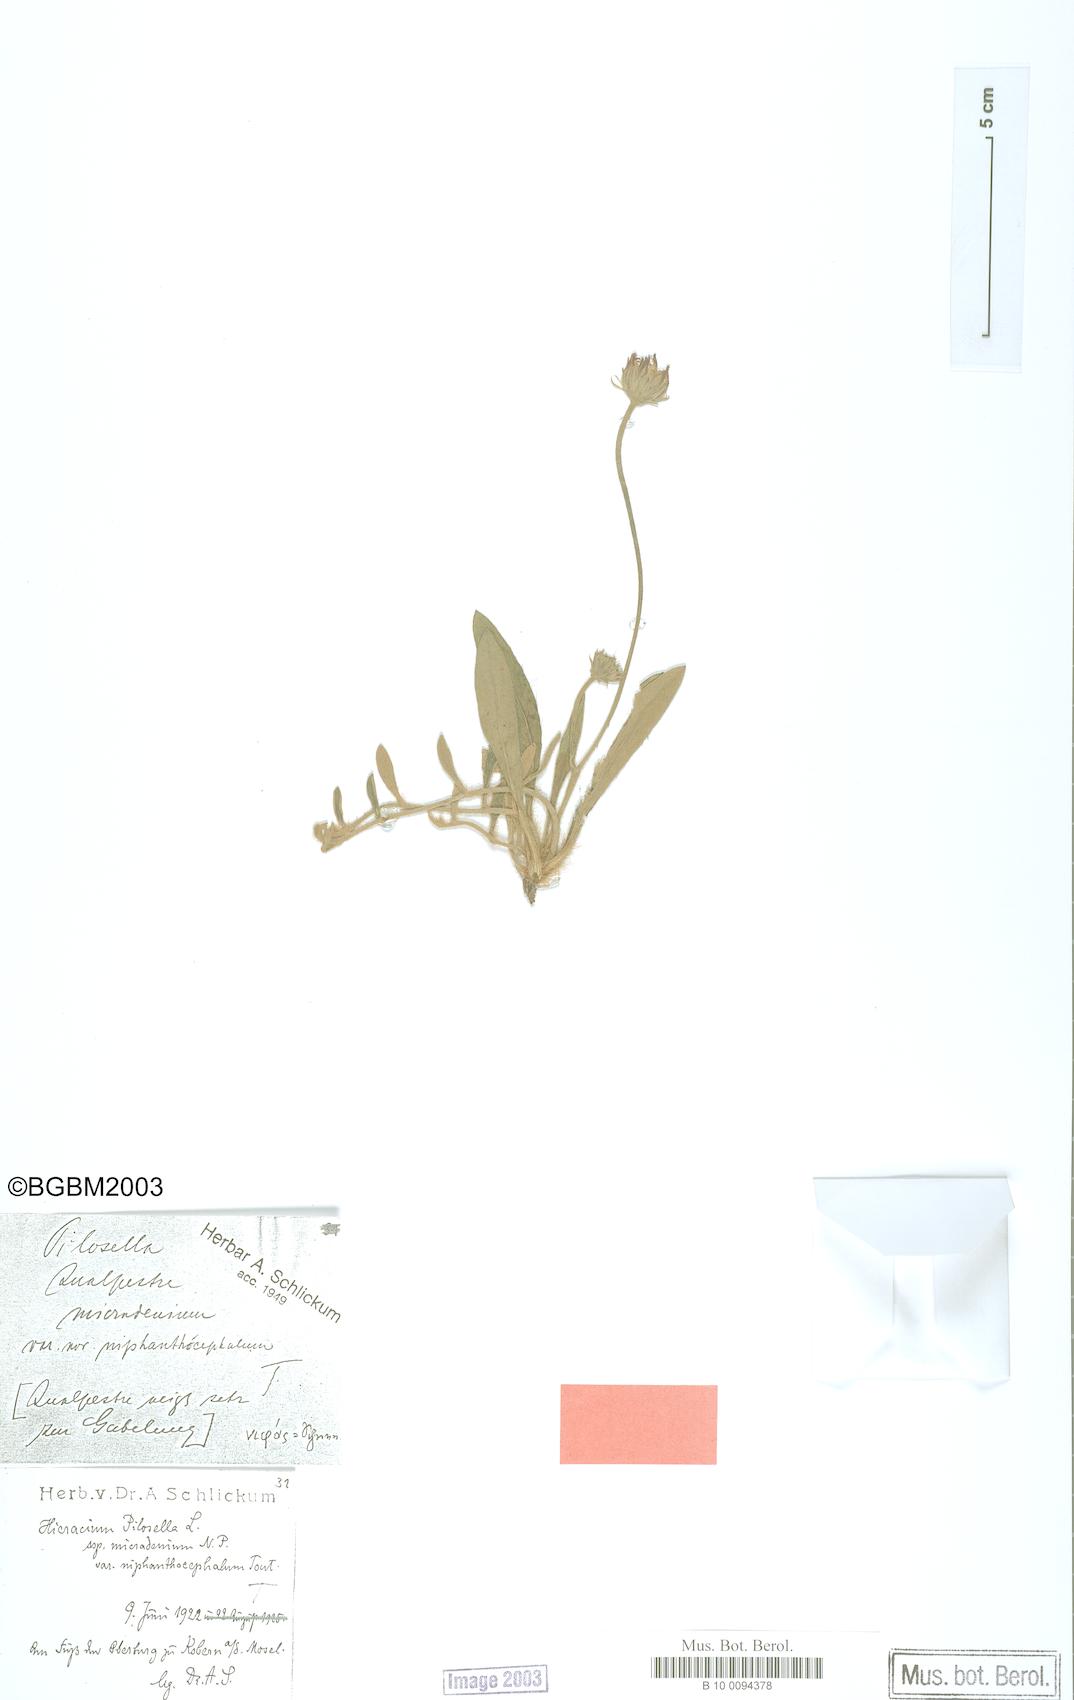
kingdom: Plantae
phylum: Tracheophyta
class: Magnoliopsida
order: Asterales
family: Asteraceae
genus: Pilosella
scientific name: Pilosella officinarum
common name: Mouse-ear hawkweed
